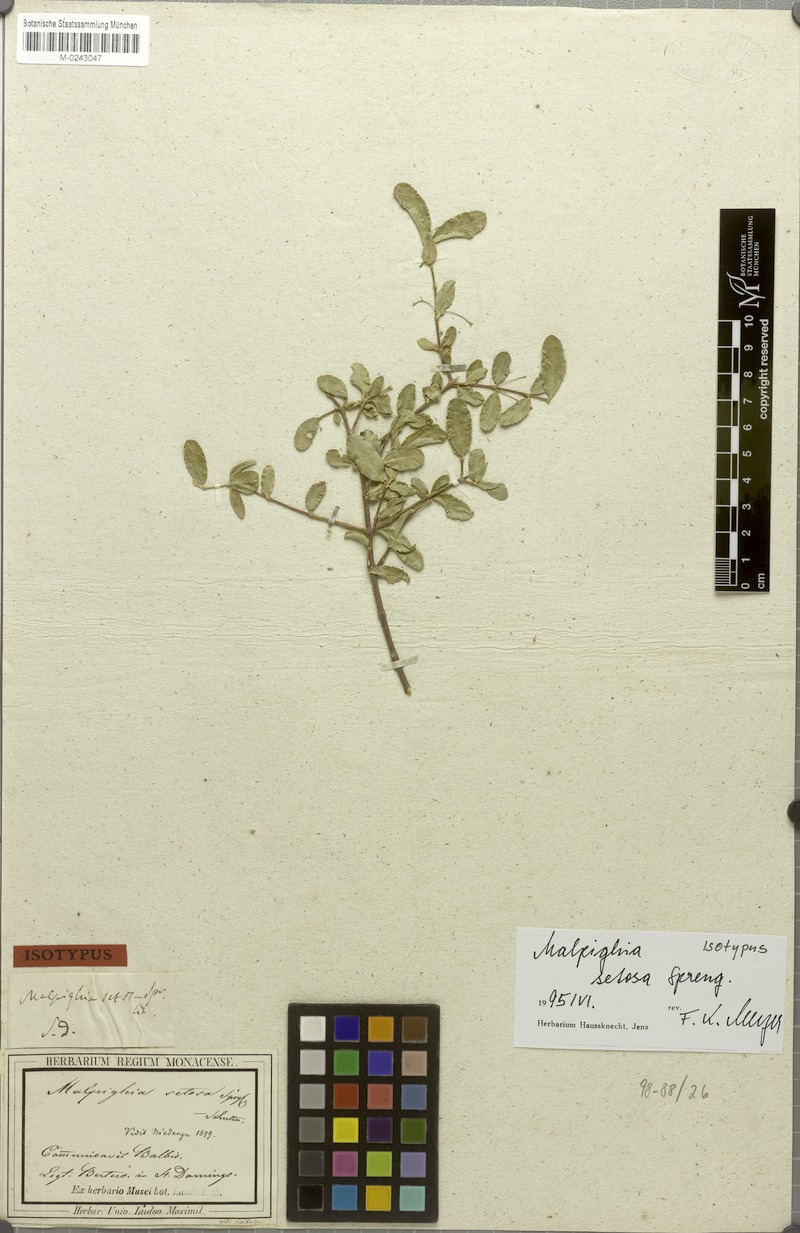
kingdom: Plantae
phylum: Tracheophyta
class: Magnoliopsida
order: Malpighiales
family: Malpighiaceae
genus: Malpighia
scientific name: Malpighia setosa
